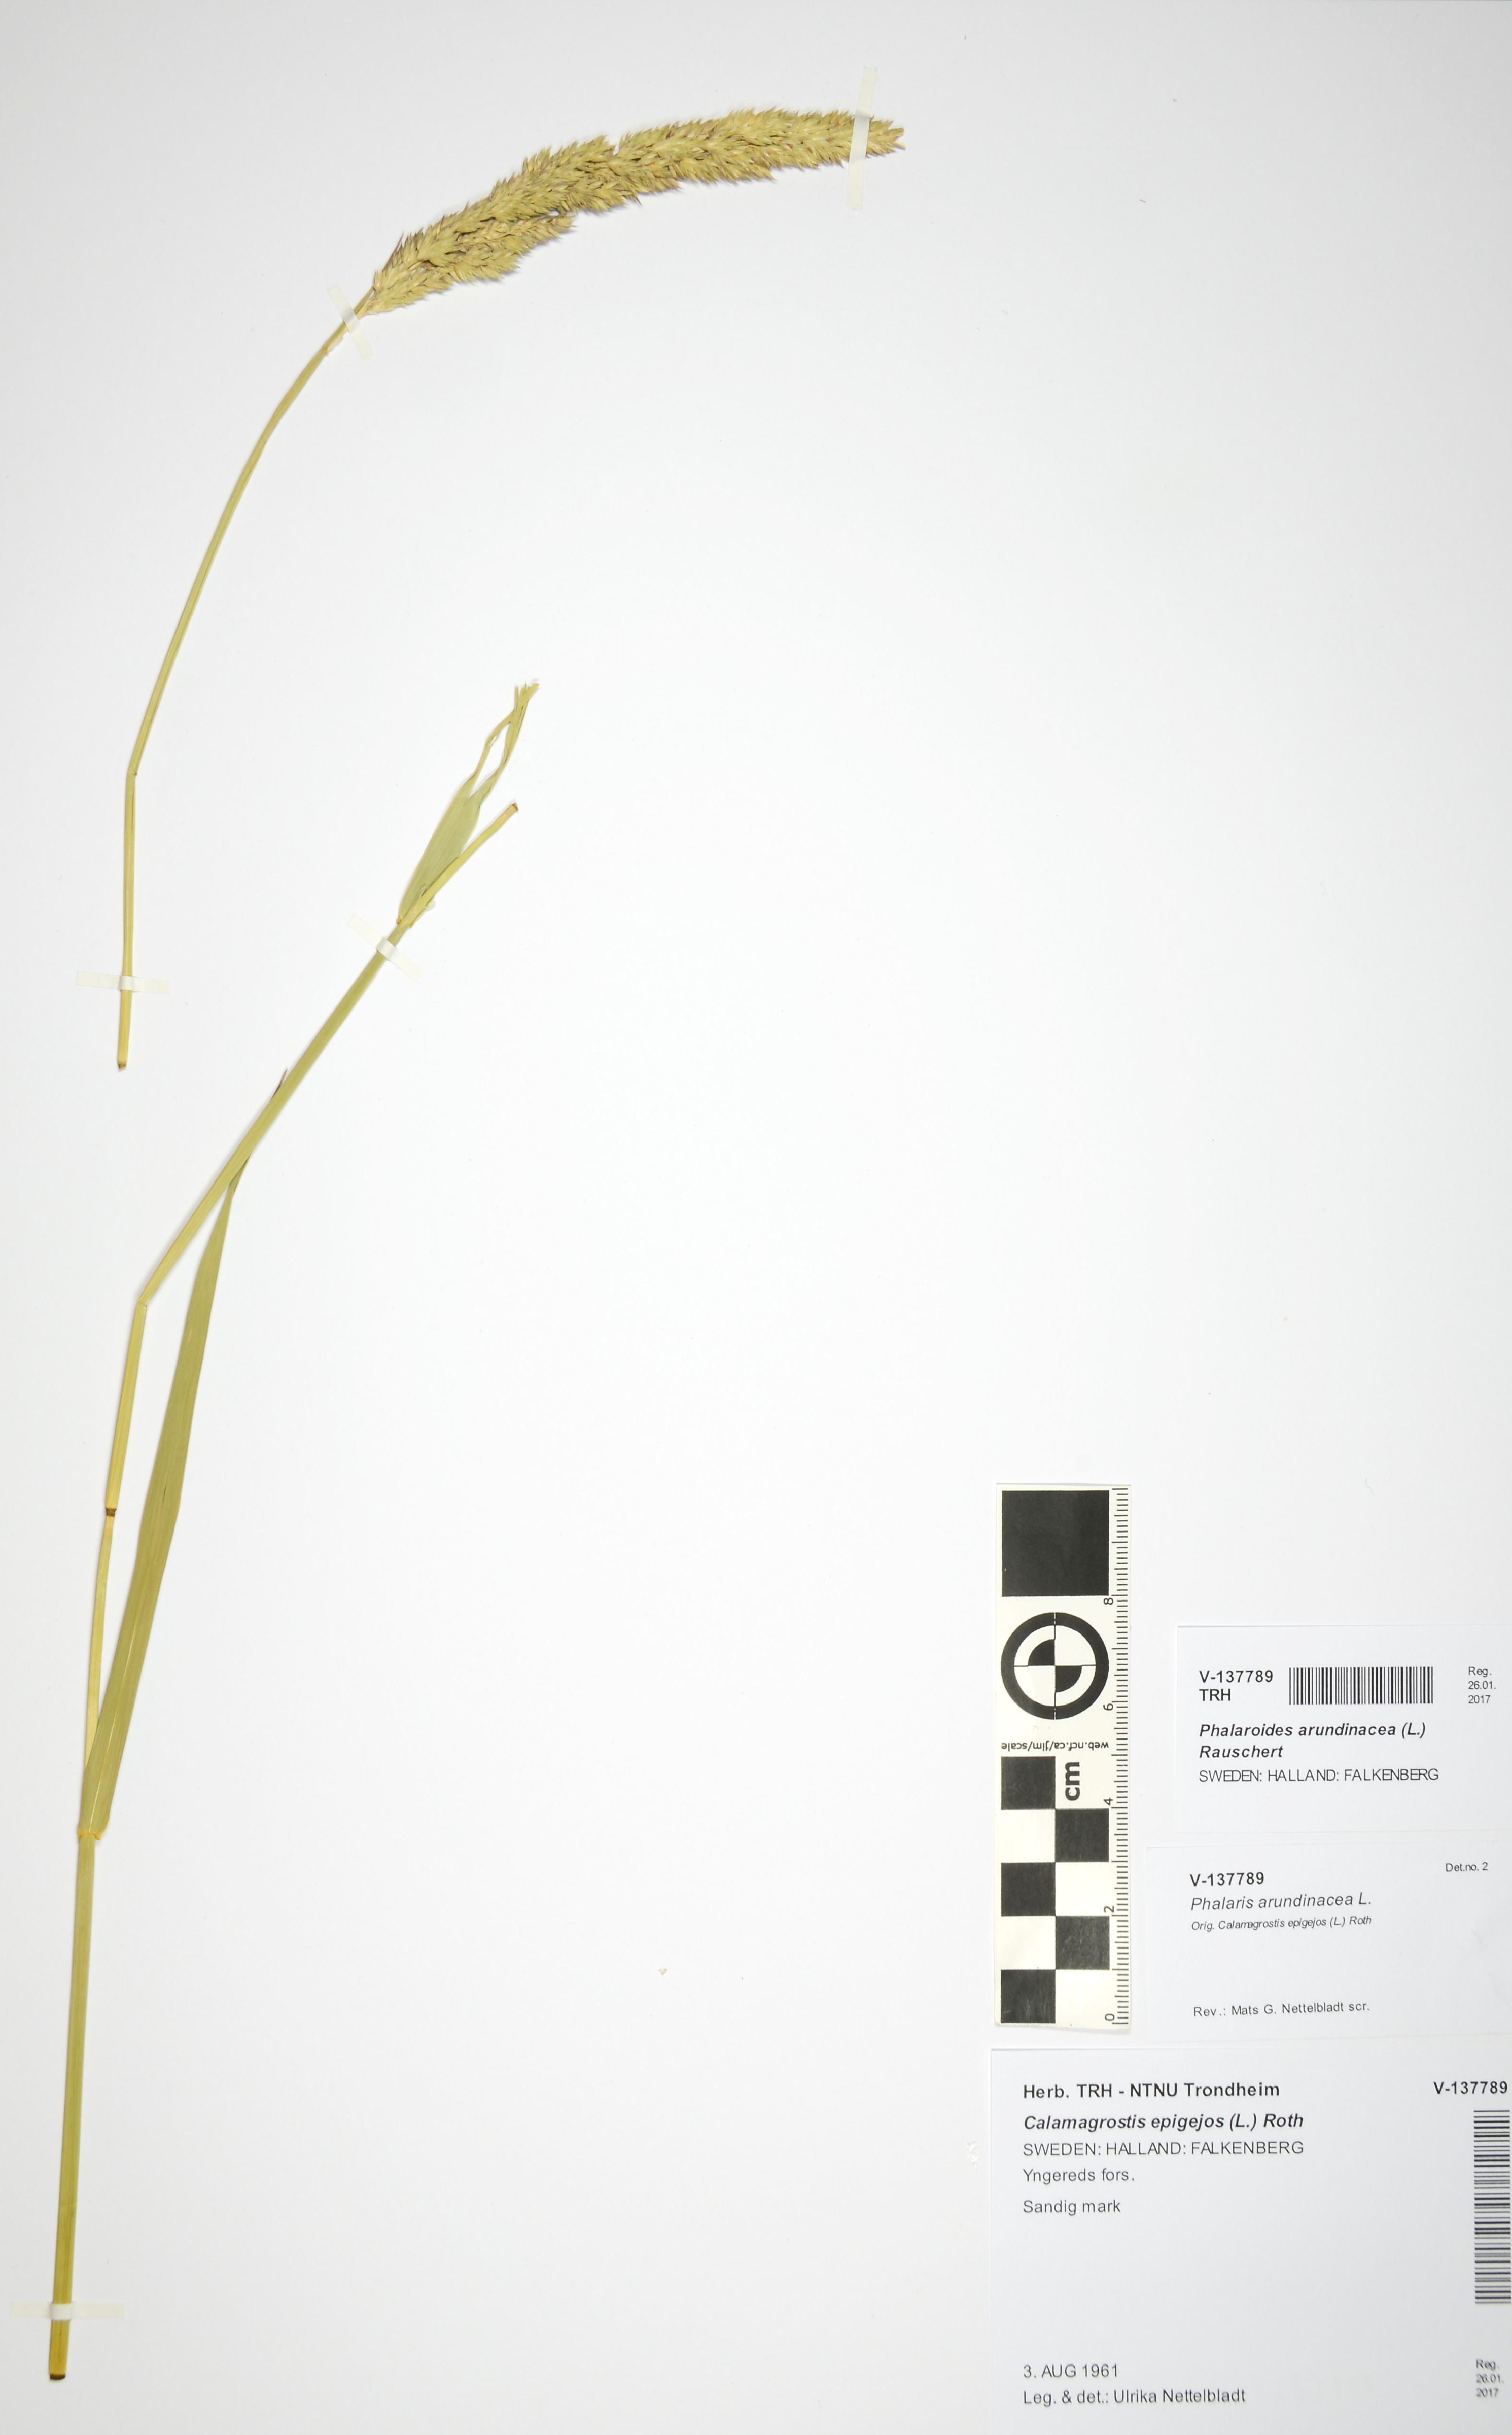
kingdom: Plantae
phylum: Tracheophyta
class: Liliopsida
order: Poales
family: Poaceae
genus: Phalaris
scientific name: Phalaris arundinacea
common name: Reed canary-grass
